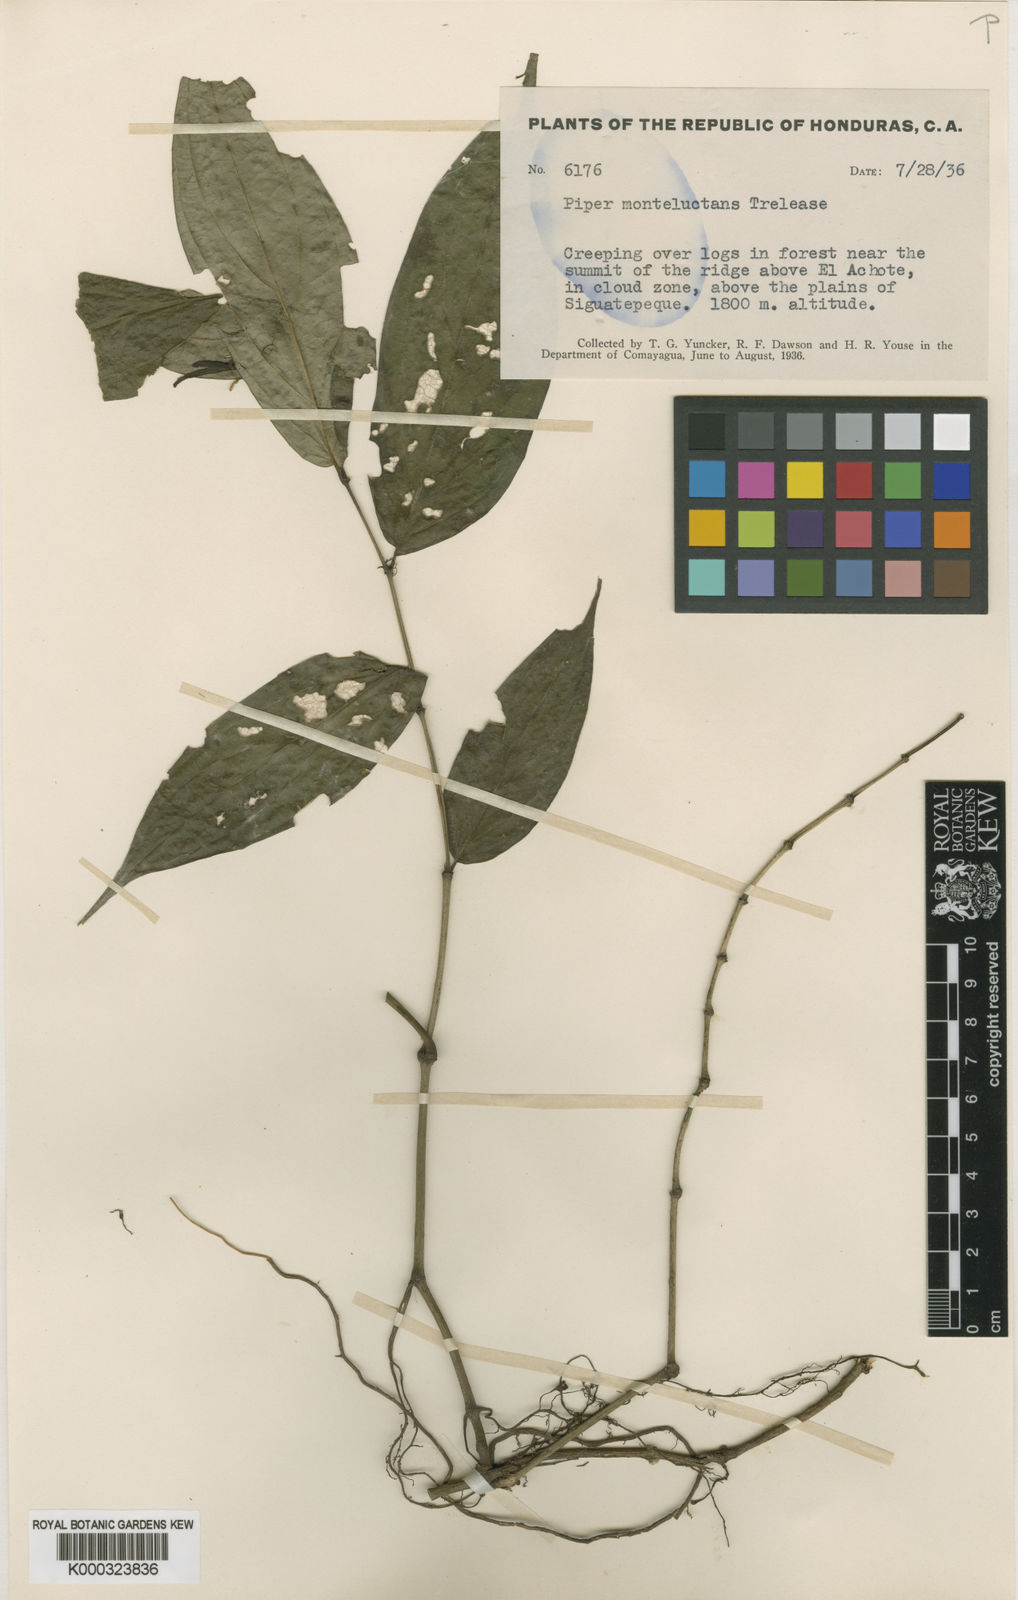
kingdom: Plantae
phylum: Tracheophyta
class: Magnoliopsida
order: Piperales
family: Piperaceae
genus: Piper
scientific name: Piper xanthostachyum
